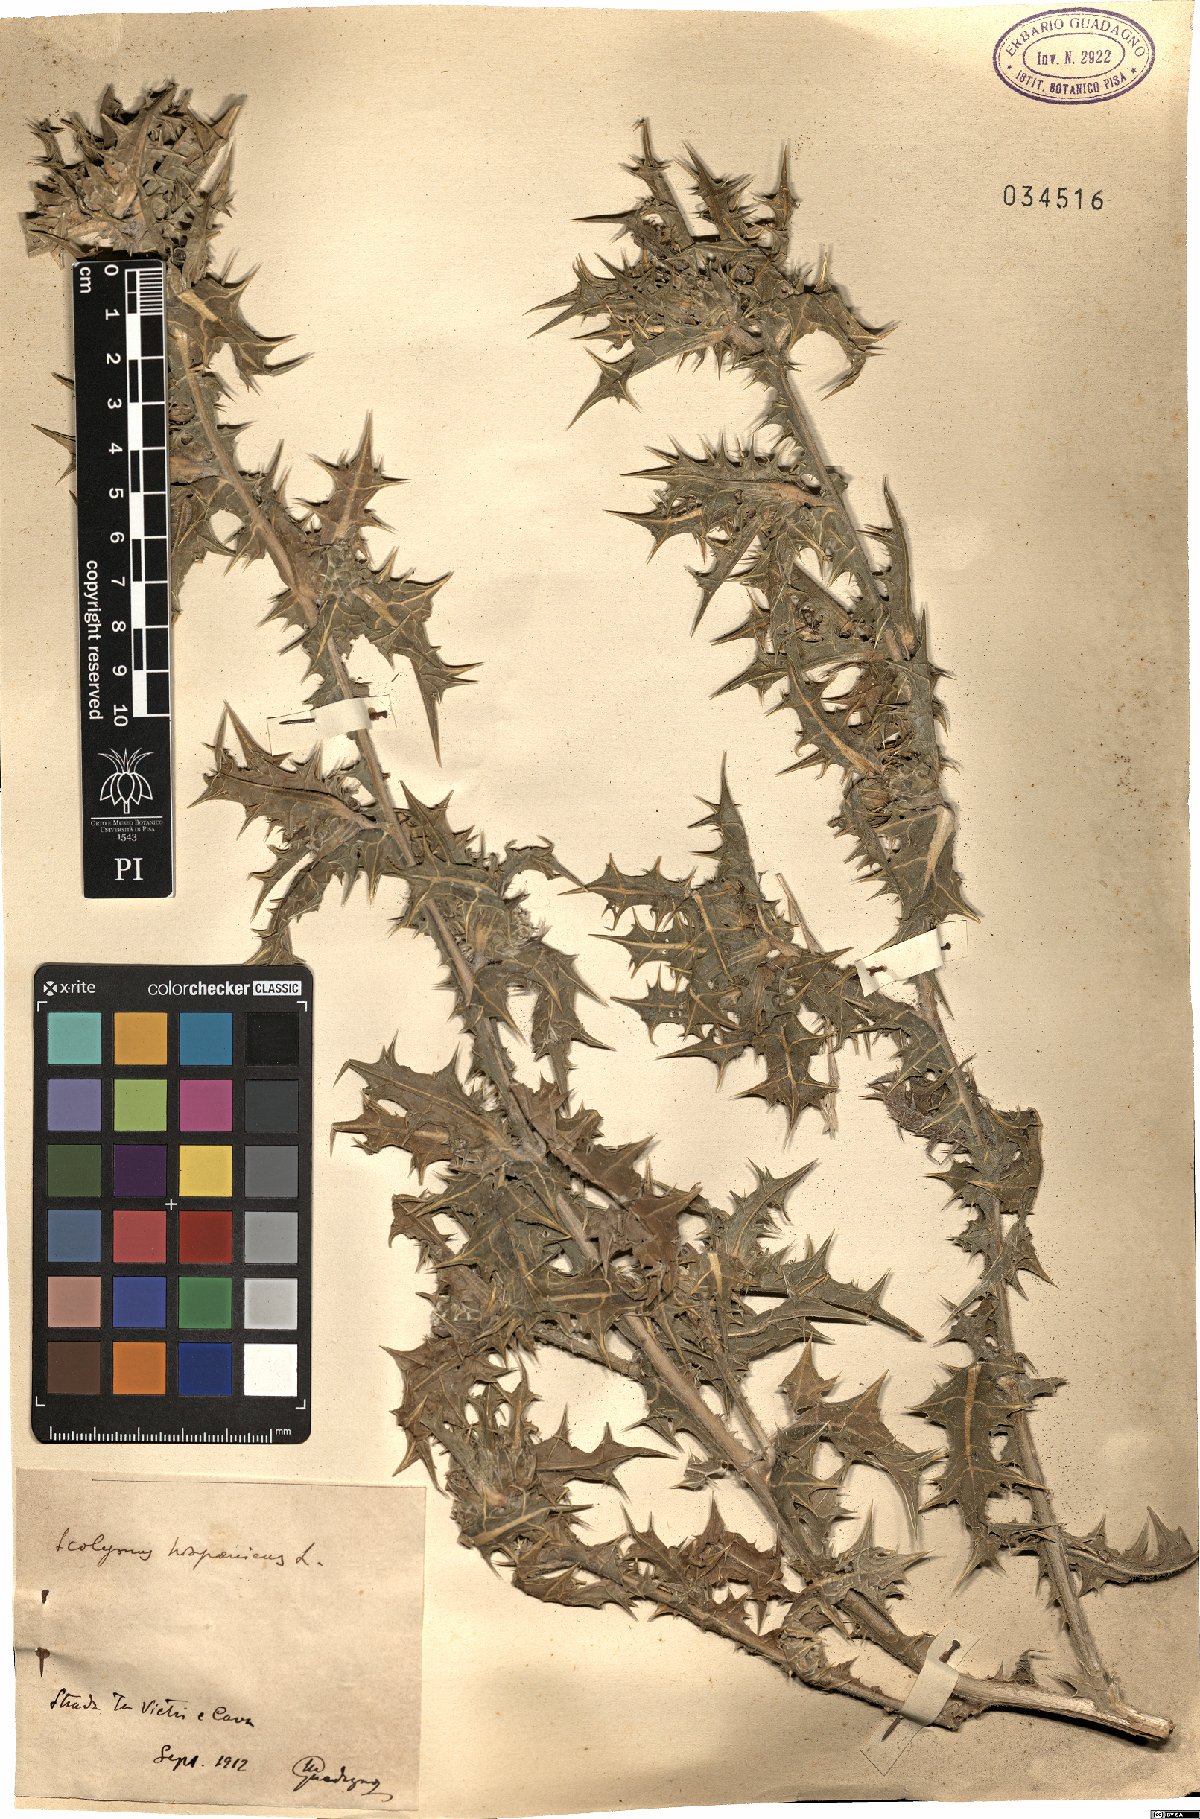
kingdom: Plantae
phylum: Tracheophyta
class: Magnoliopsida
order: Asterales
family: Asteraceae
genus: Scolymus
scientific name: Scolymus hispanicus
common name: Golden thistle
